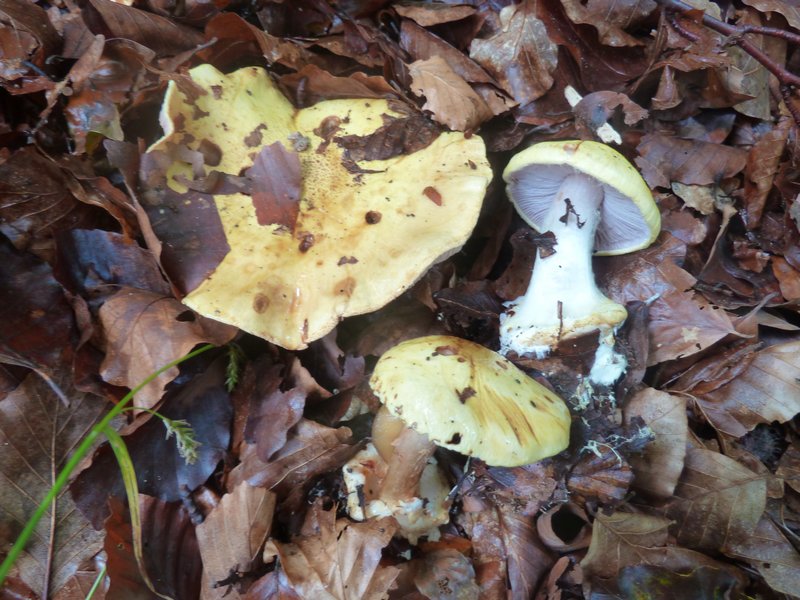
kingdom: Fungi
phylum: Basidiomycota
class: Agaricomycetes
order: Agaricales
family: Cortinariaceae
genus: Calonarius
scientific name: Calonarius callochrous
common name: lillabladet slørhat
